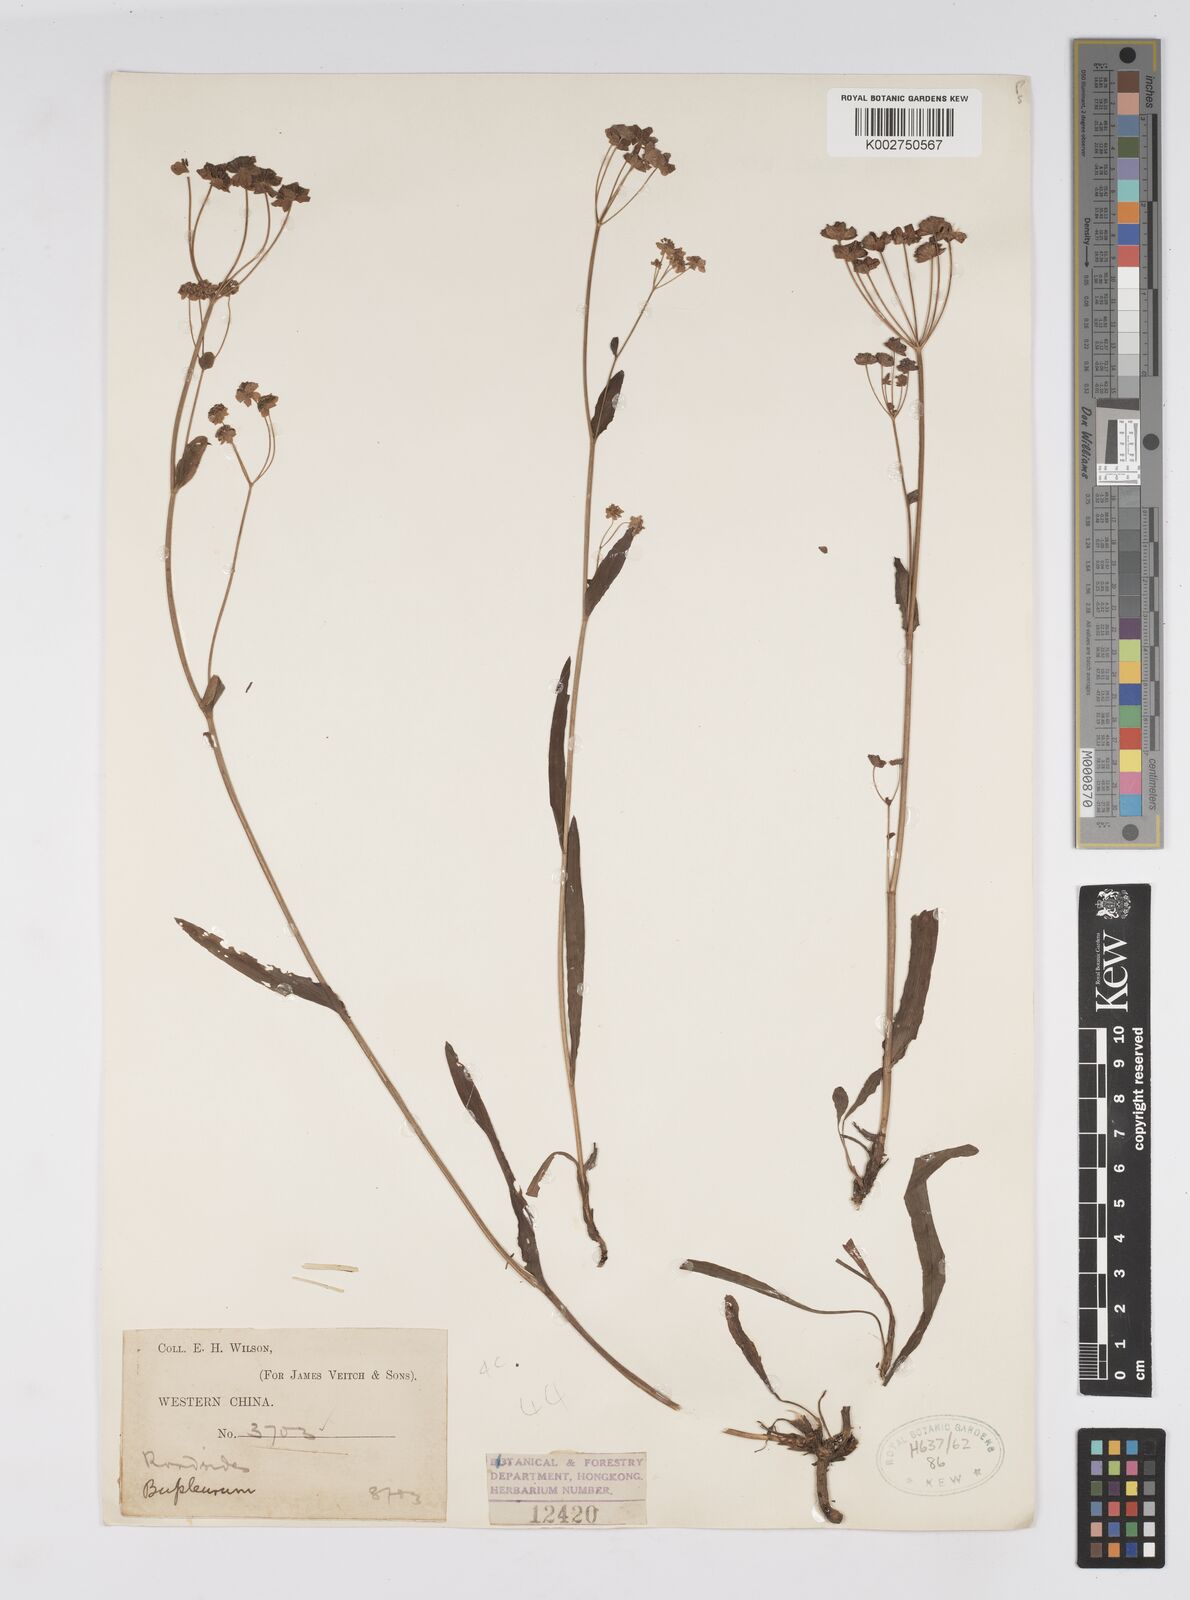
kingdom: Plantae
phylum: Tracheophyta
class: Magnoliopsida
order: Apiales
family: Apiaceae
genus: Bupleurum
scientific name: Bupleurum
